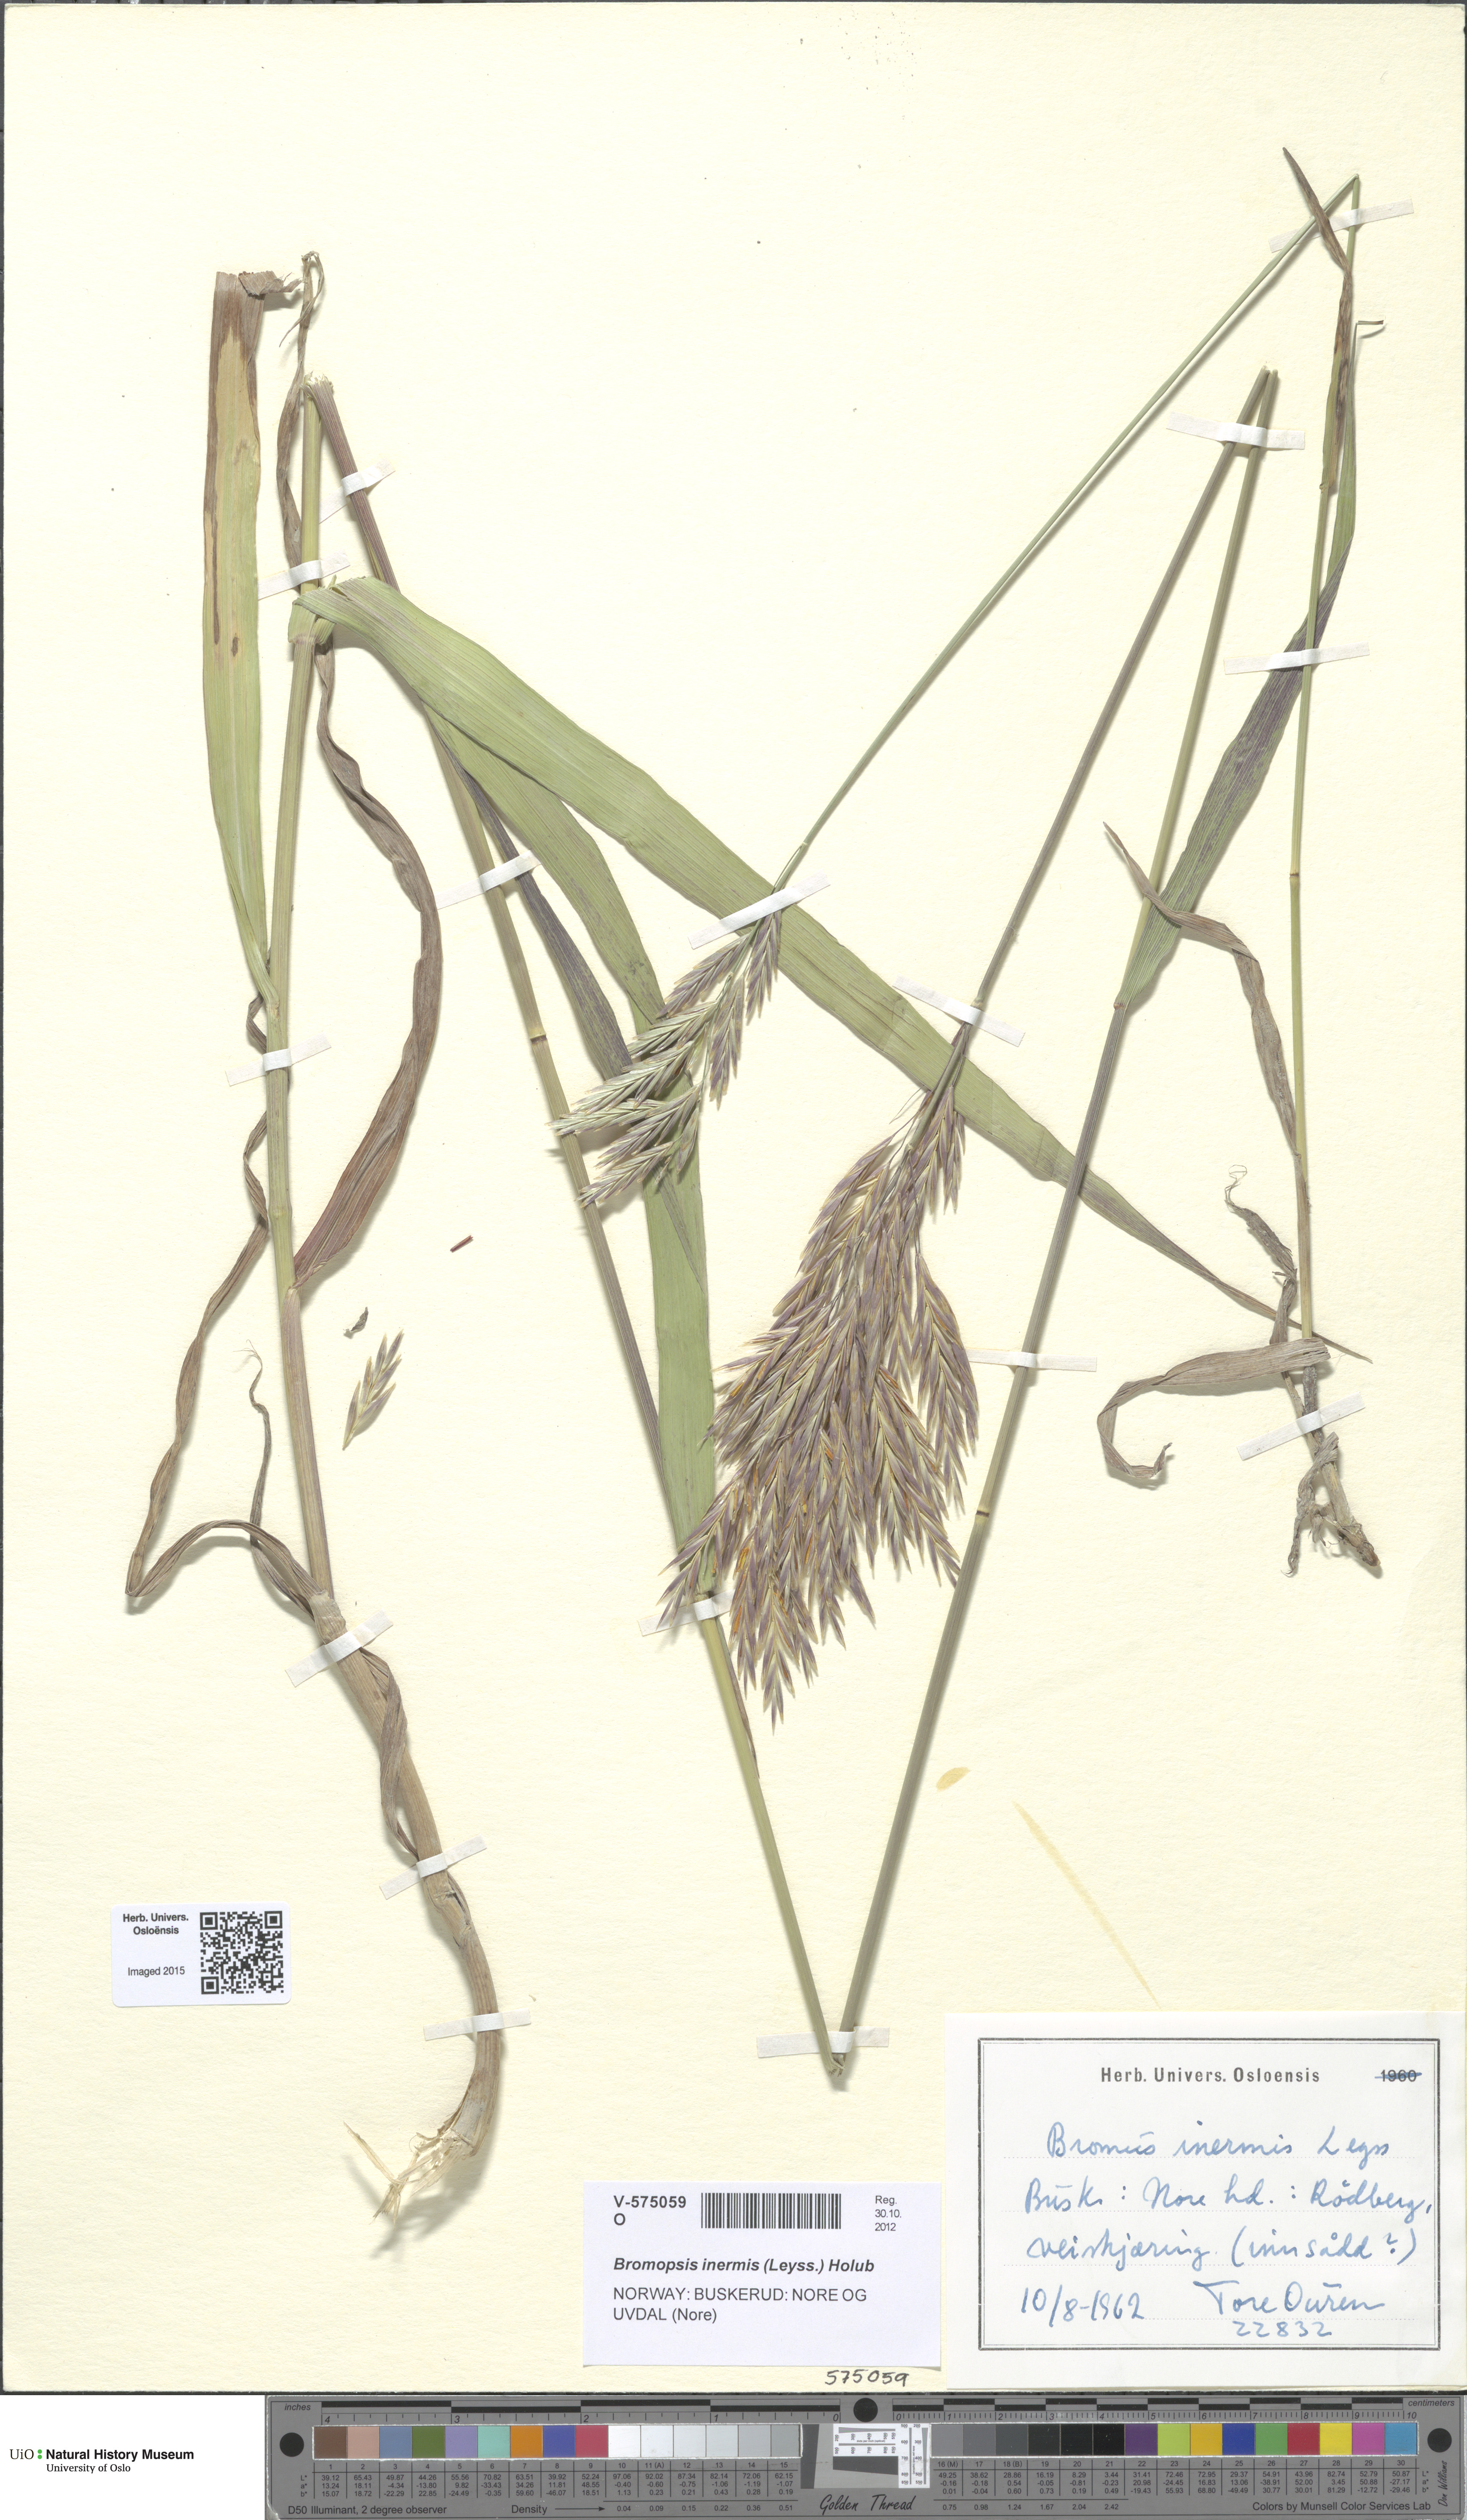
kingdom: Plantae
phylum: Tracheophyta
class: Liliopsida
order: Poales
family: Poaceae
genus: Bromus
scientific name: Bromus inermis
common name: Smooth brome
